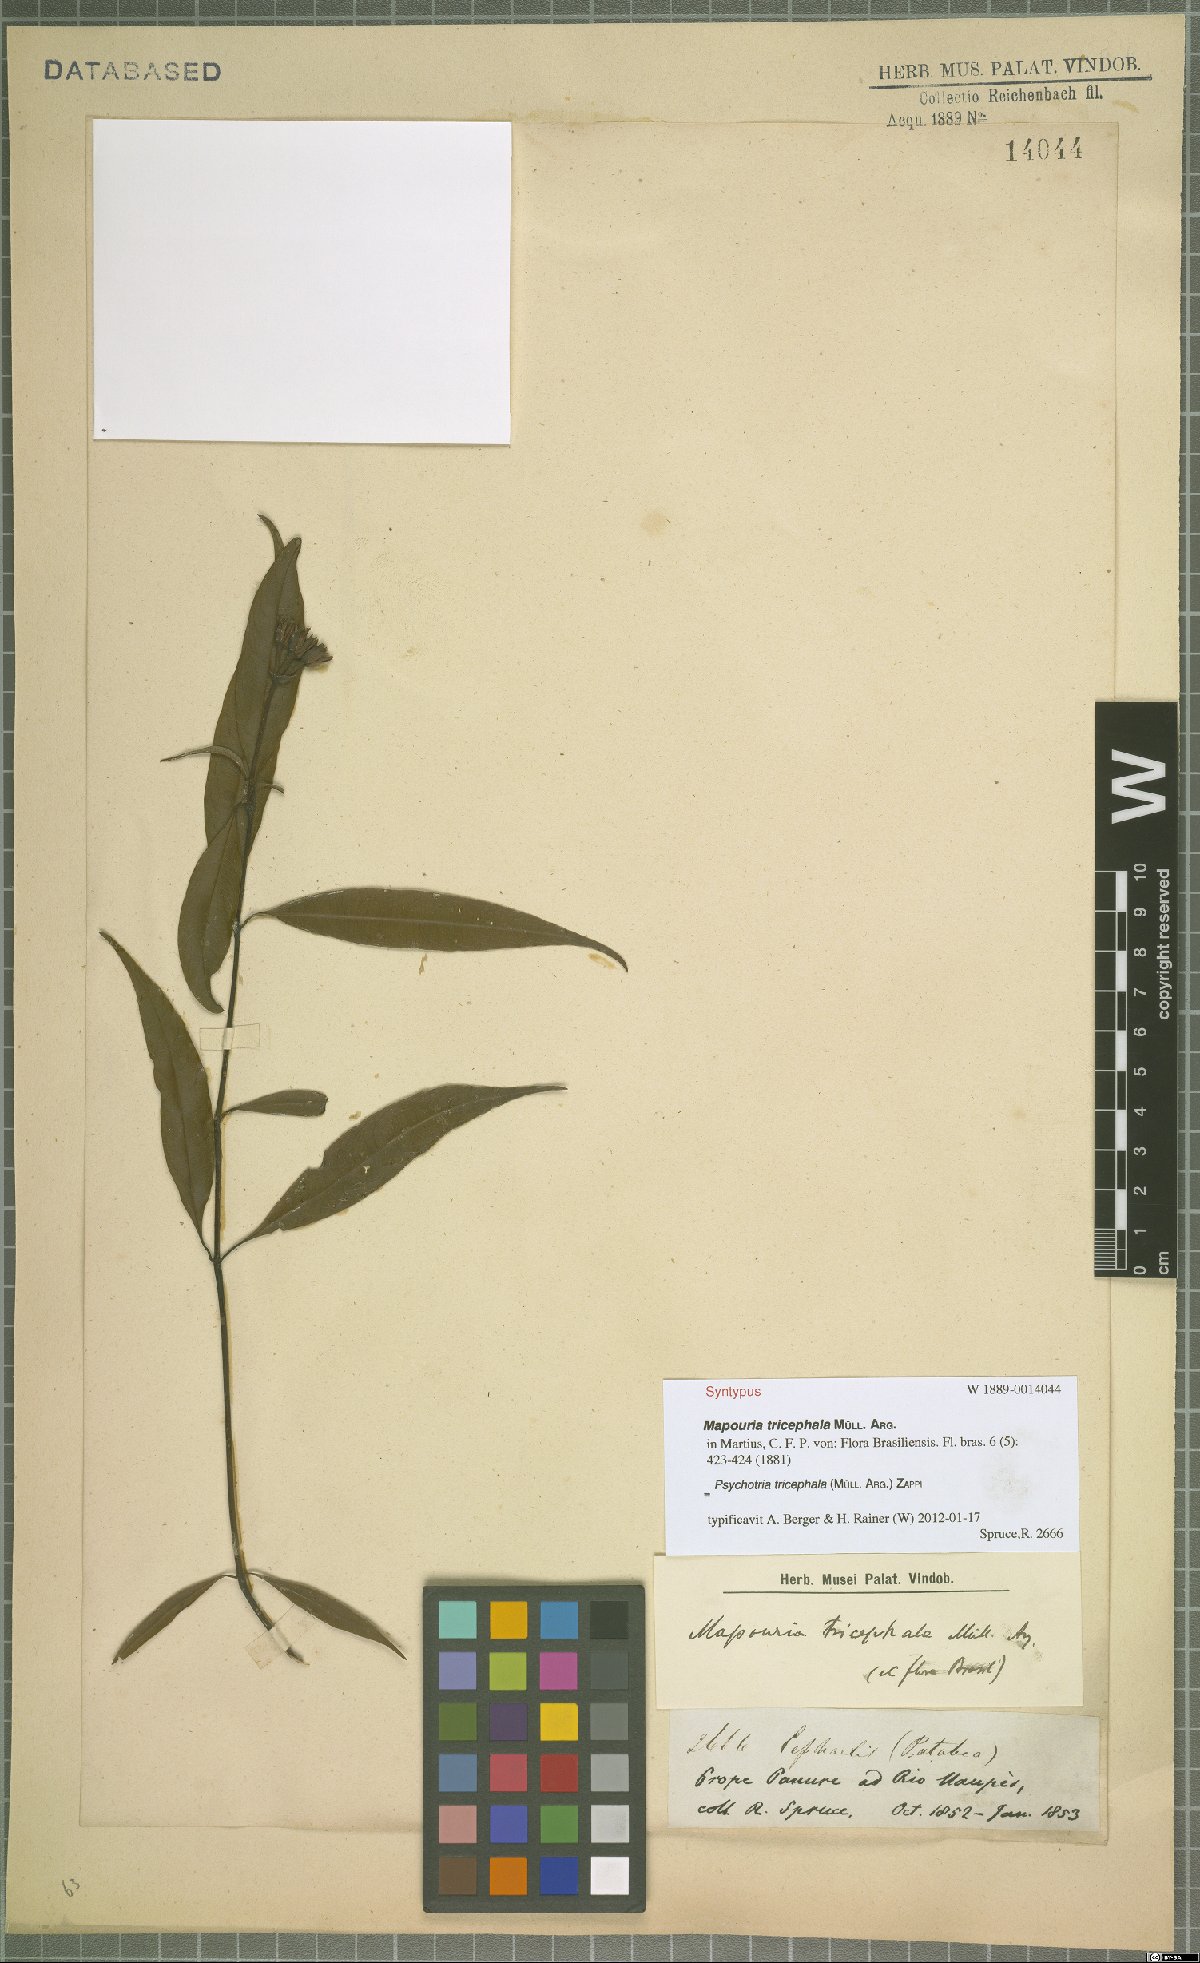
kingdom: Plantae
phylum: Tracheophyta
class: Magnoliopsida
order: Gentianales
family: Rubiaceae
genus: Palicourea
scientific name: Palicourea tricephala
